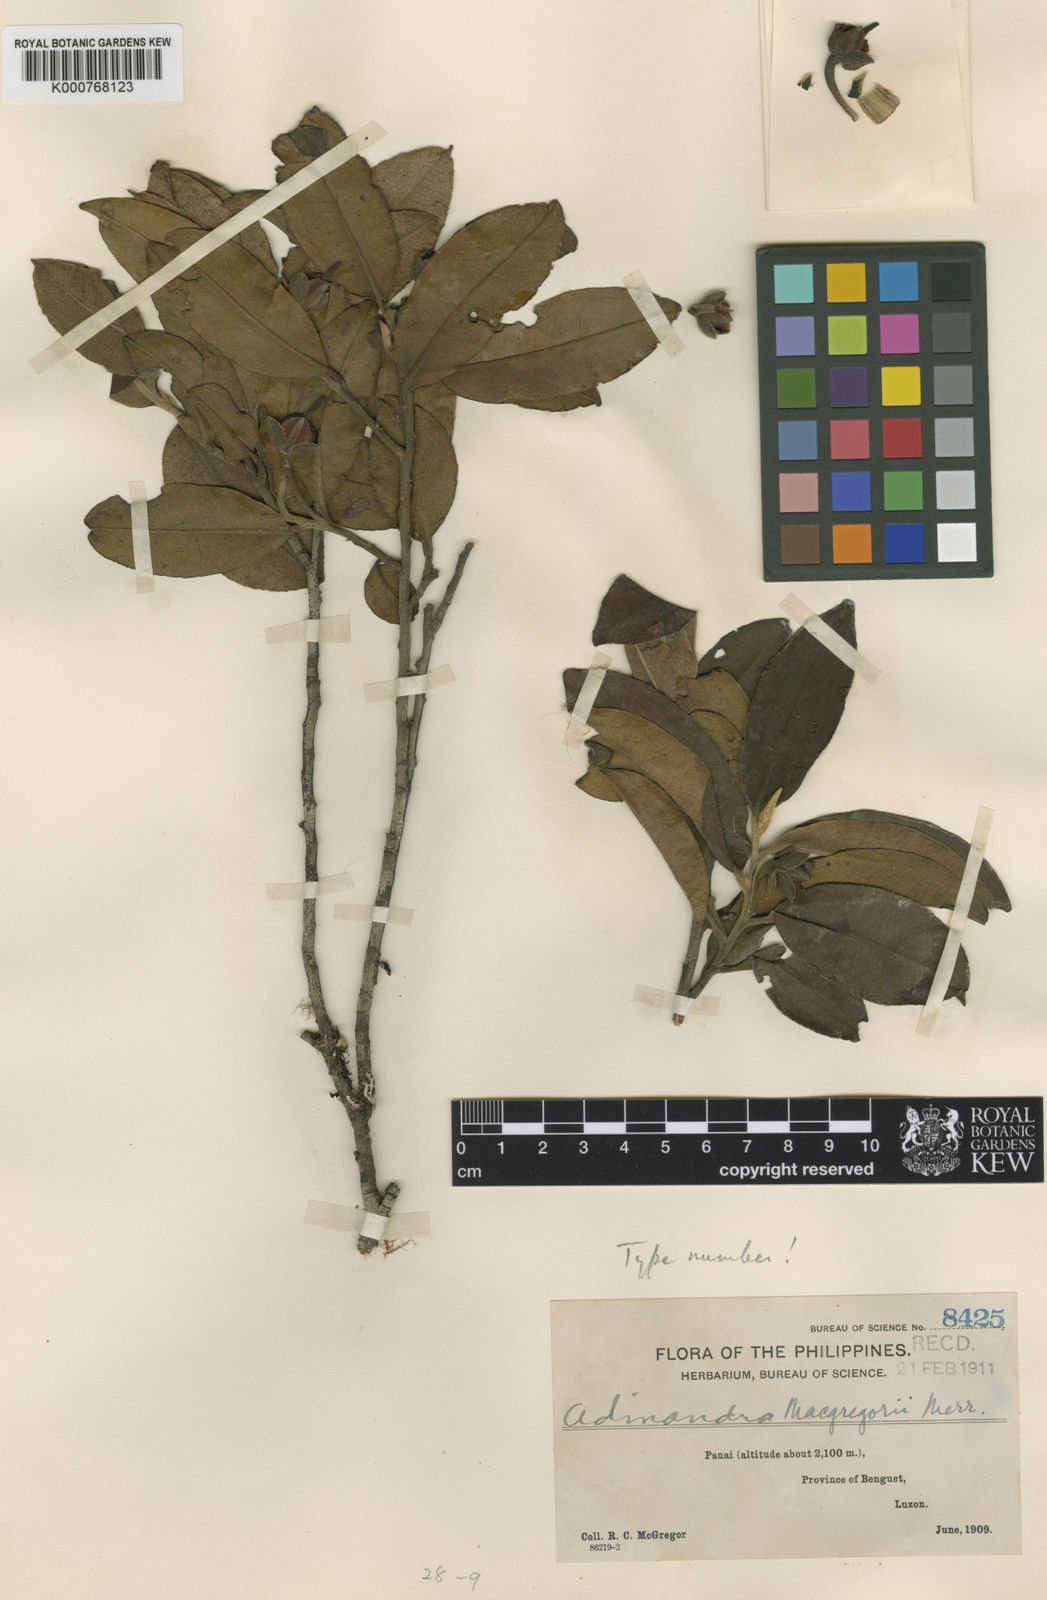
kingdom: Plantae
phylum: Tracheophyta
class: Magnoliopsida
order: Ericales
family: Pentaphylacaceae
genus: Adinandra
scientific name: Adinandra macgregorii
